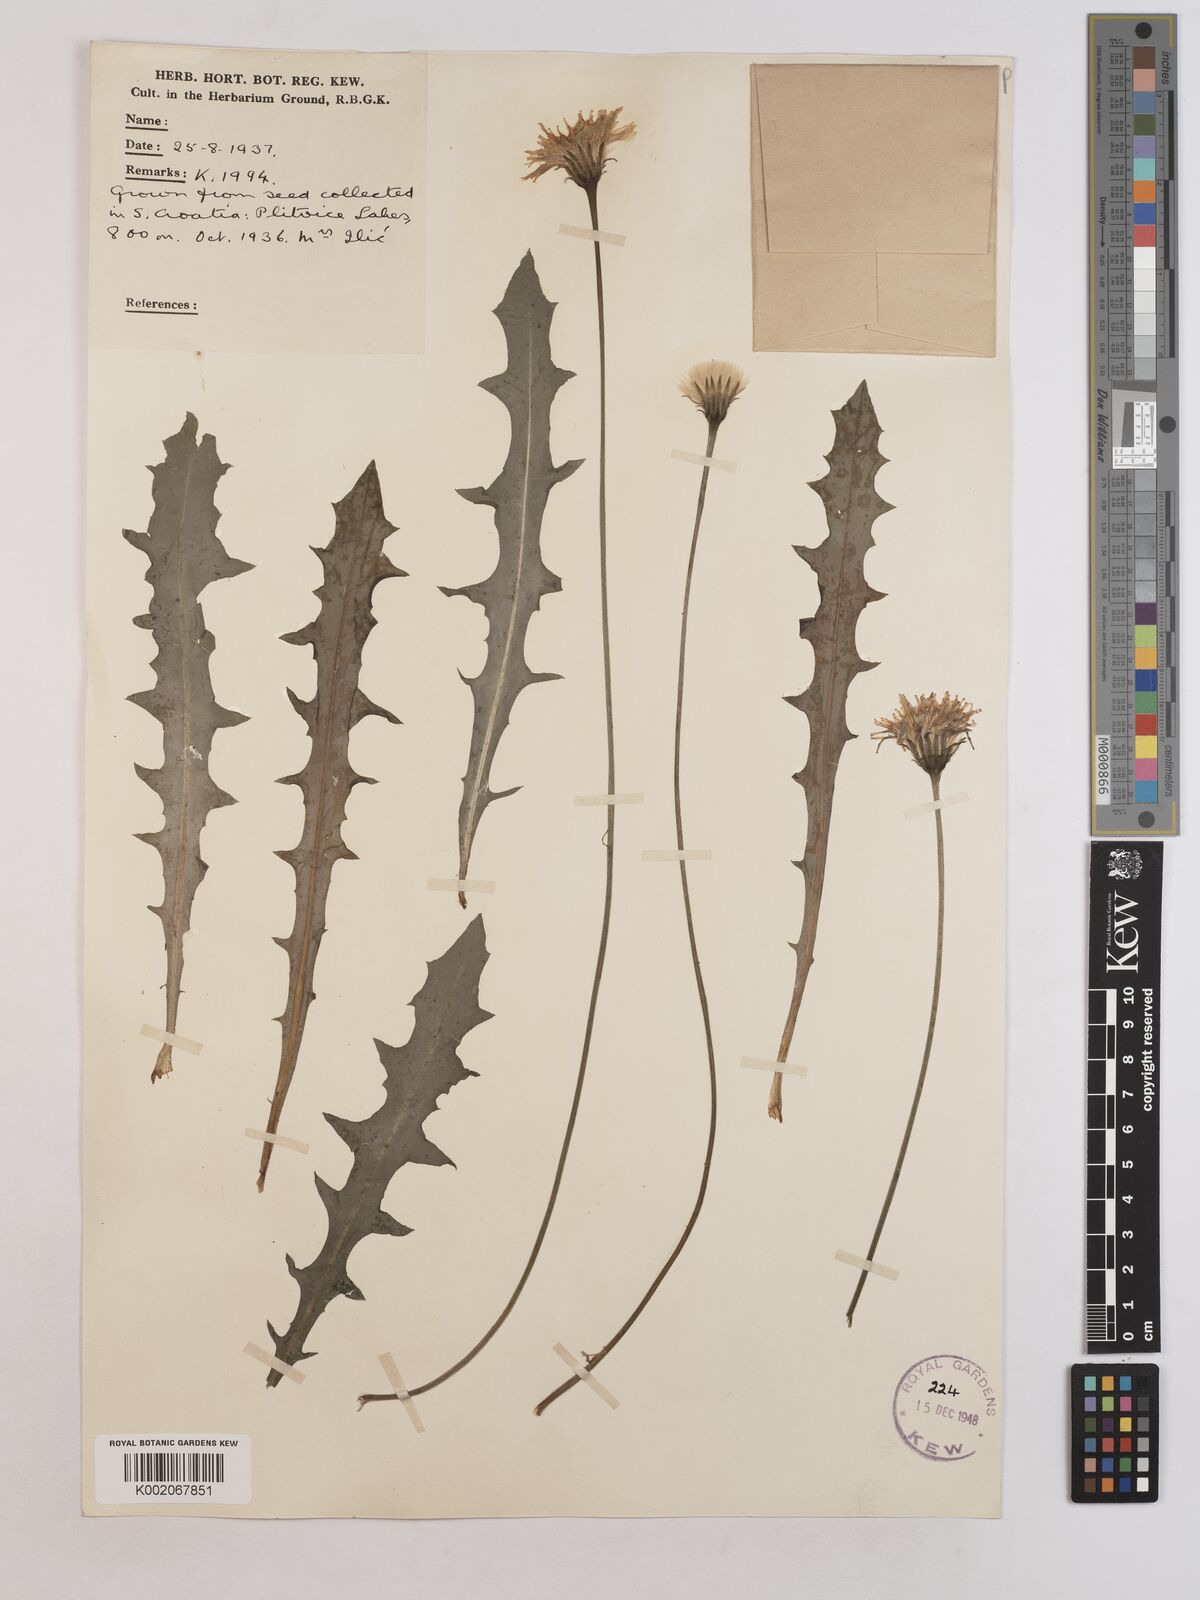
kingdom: Plantae
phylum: Tracheophyta
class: Magnoliopsida
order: Asterales
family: Asteraceae
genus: Leontodon
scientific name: Leontodon crispus
